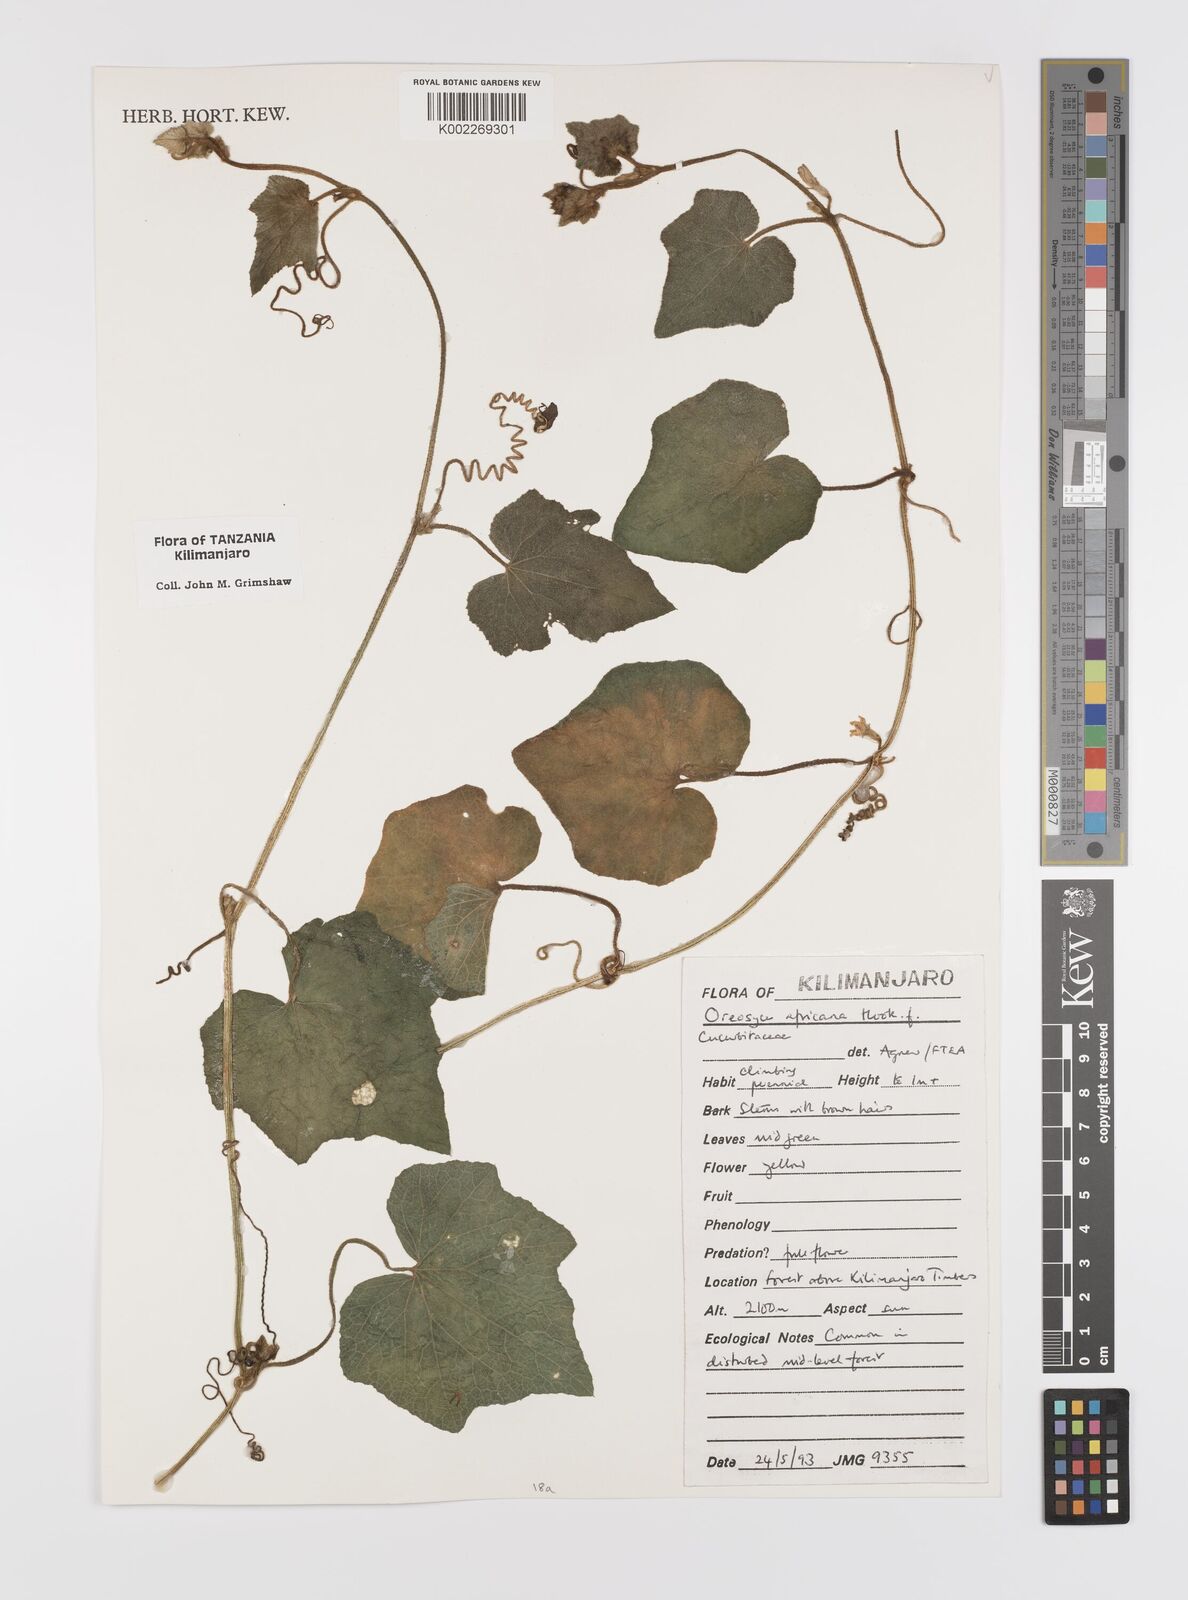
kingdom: Plantae
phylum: Tracheophyta
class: Magnoliopsida
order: Cucurbitales
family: Cucurbitaceae
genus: Cucumis
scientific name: Cucumis oreosyce
